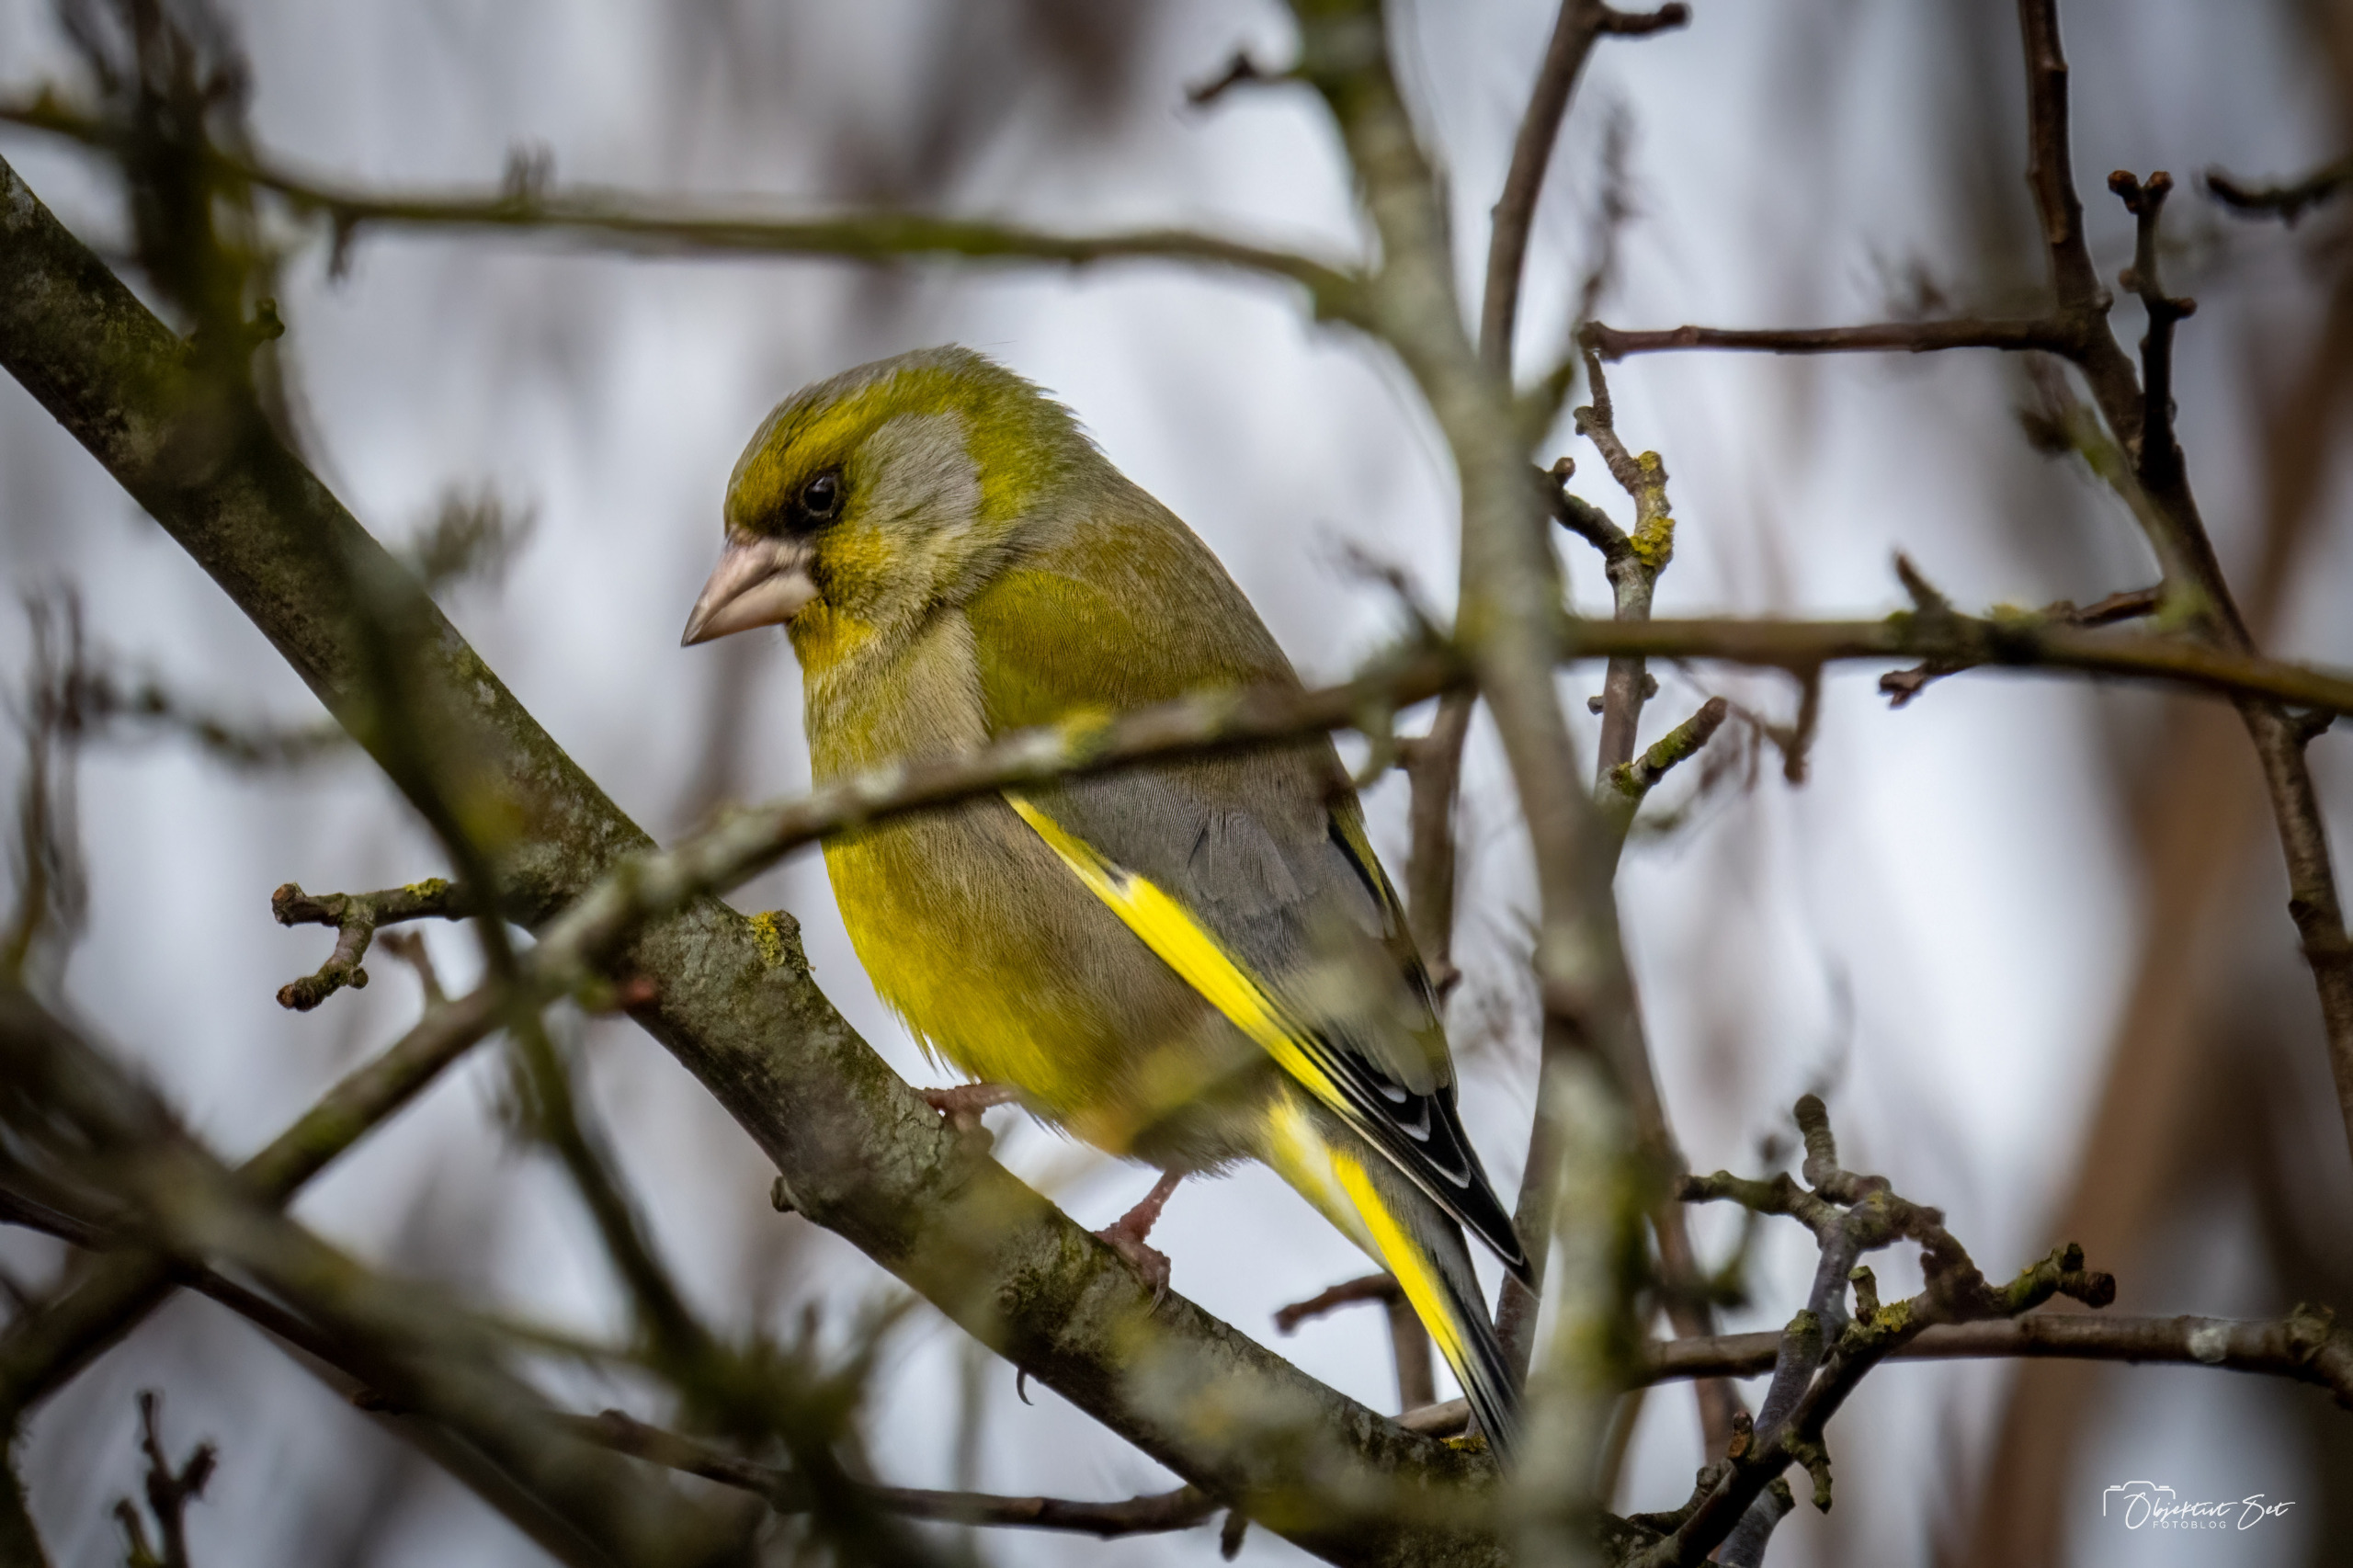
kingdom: Plantae
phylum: Tracheophyta
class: Liliopsida
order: Poales
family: Poaceae
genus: Chloris
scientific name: Chloris chloris
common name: Grønirisk
